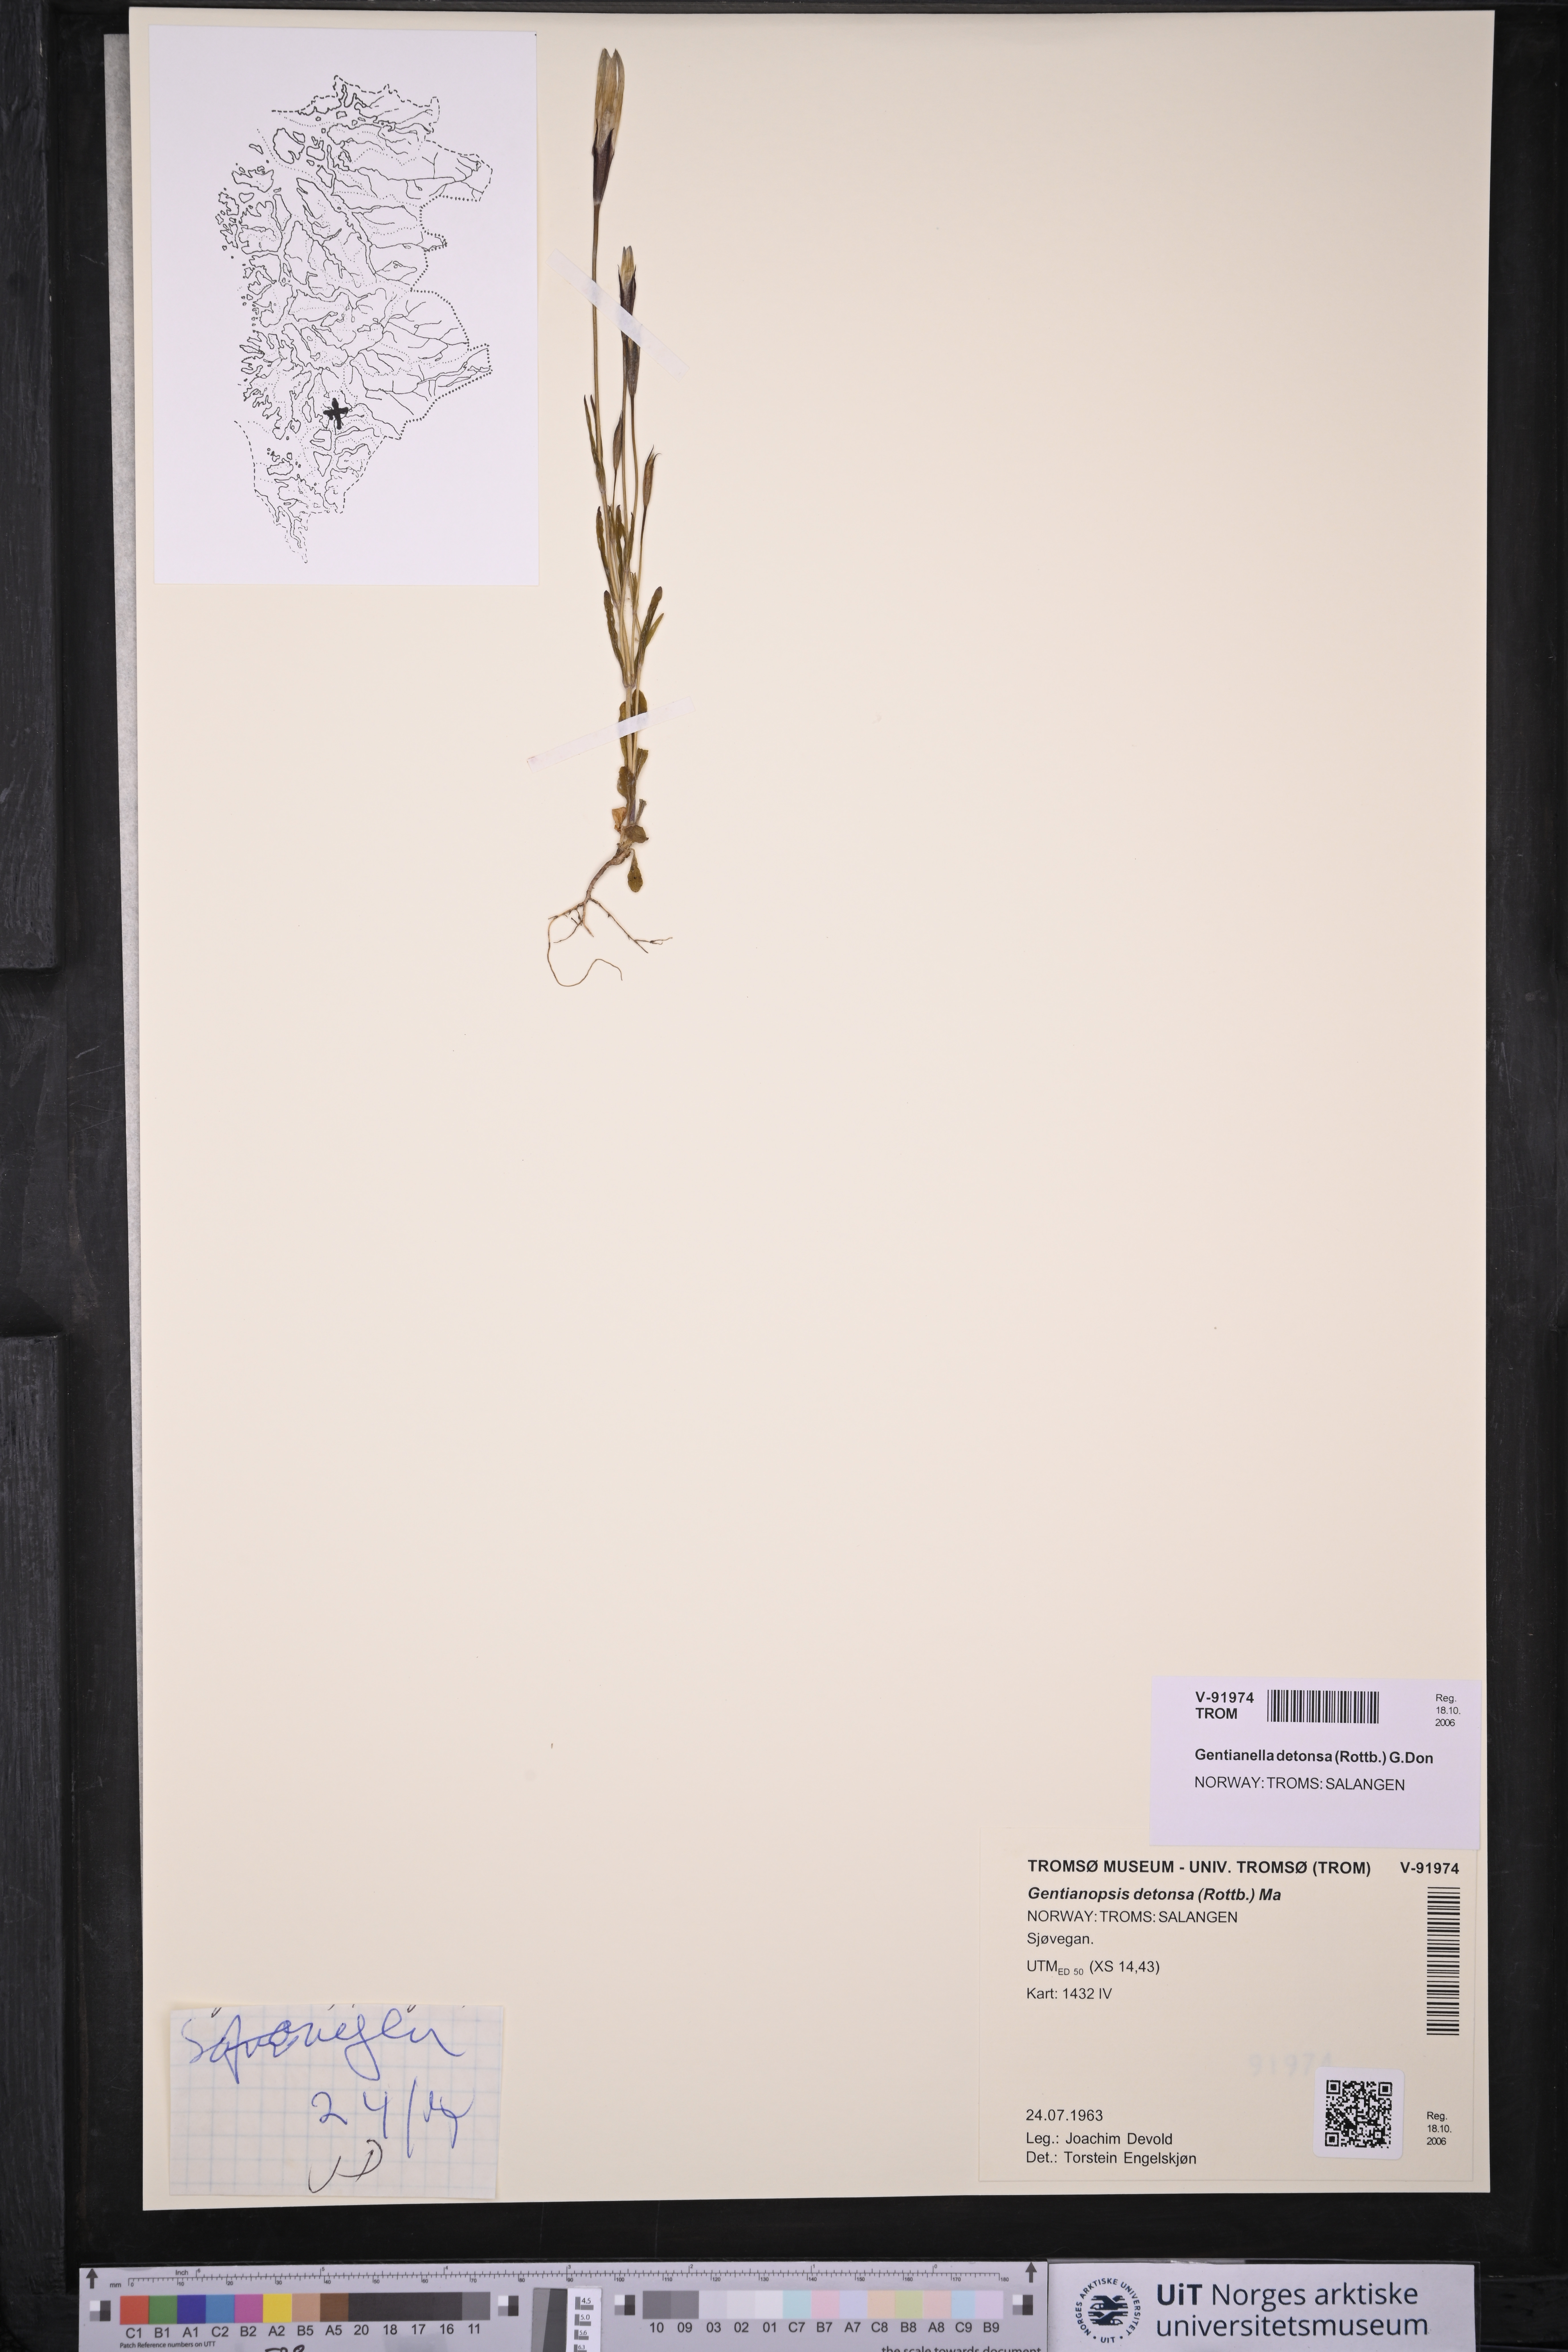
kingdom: Plantae
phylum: Tracheophyta
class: Magnoliopsida
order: Gentianales
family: Gentianaceae
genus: Gentianopsis
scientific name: Gentianopsis detonsa
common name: Fringed-gentian
